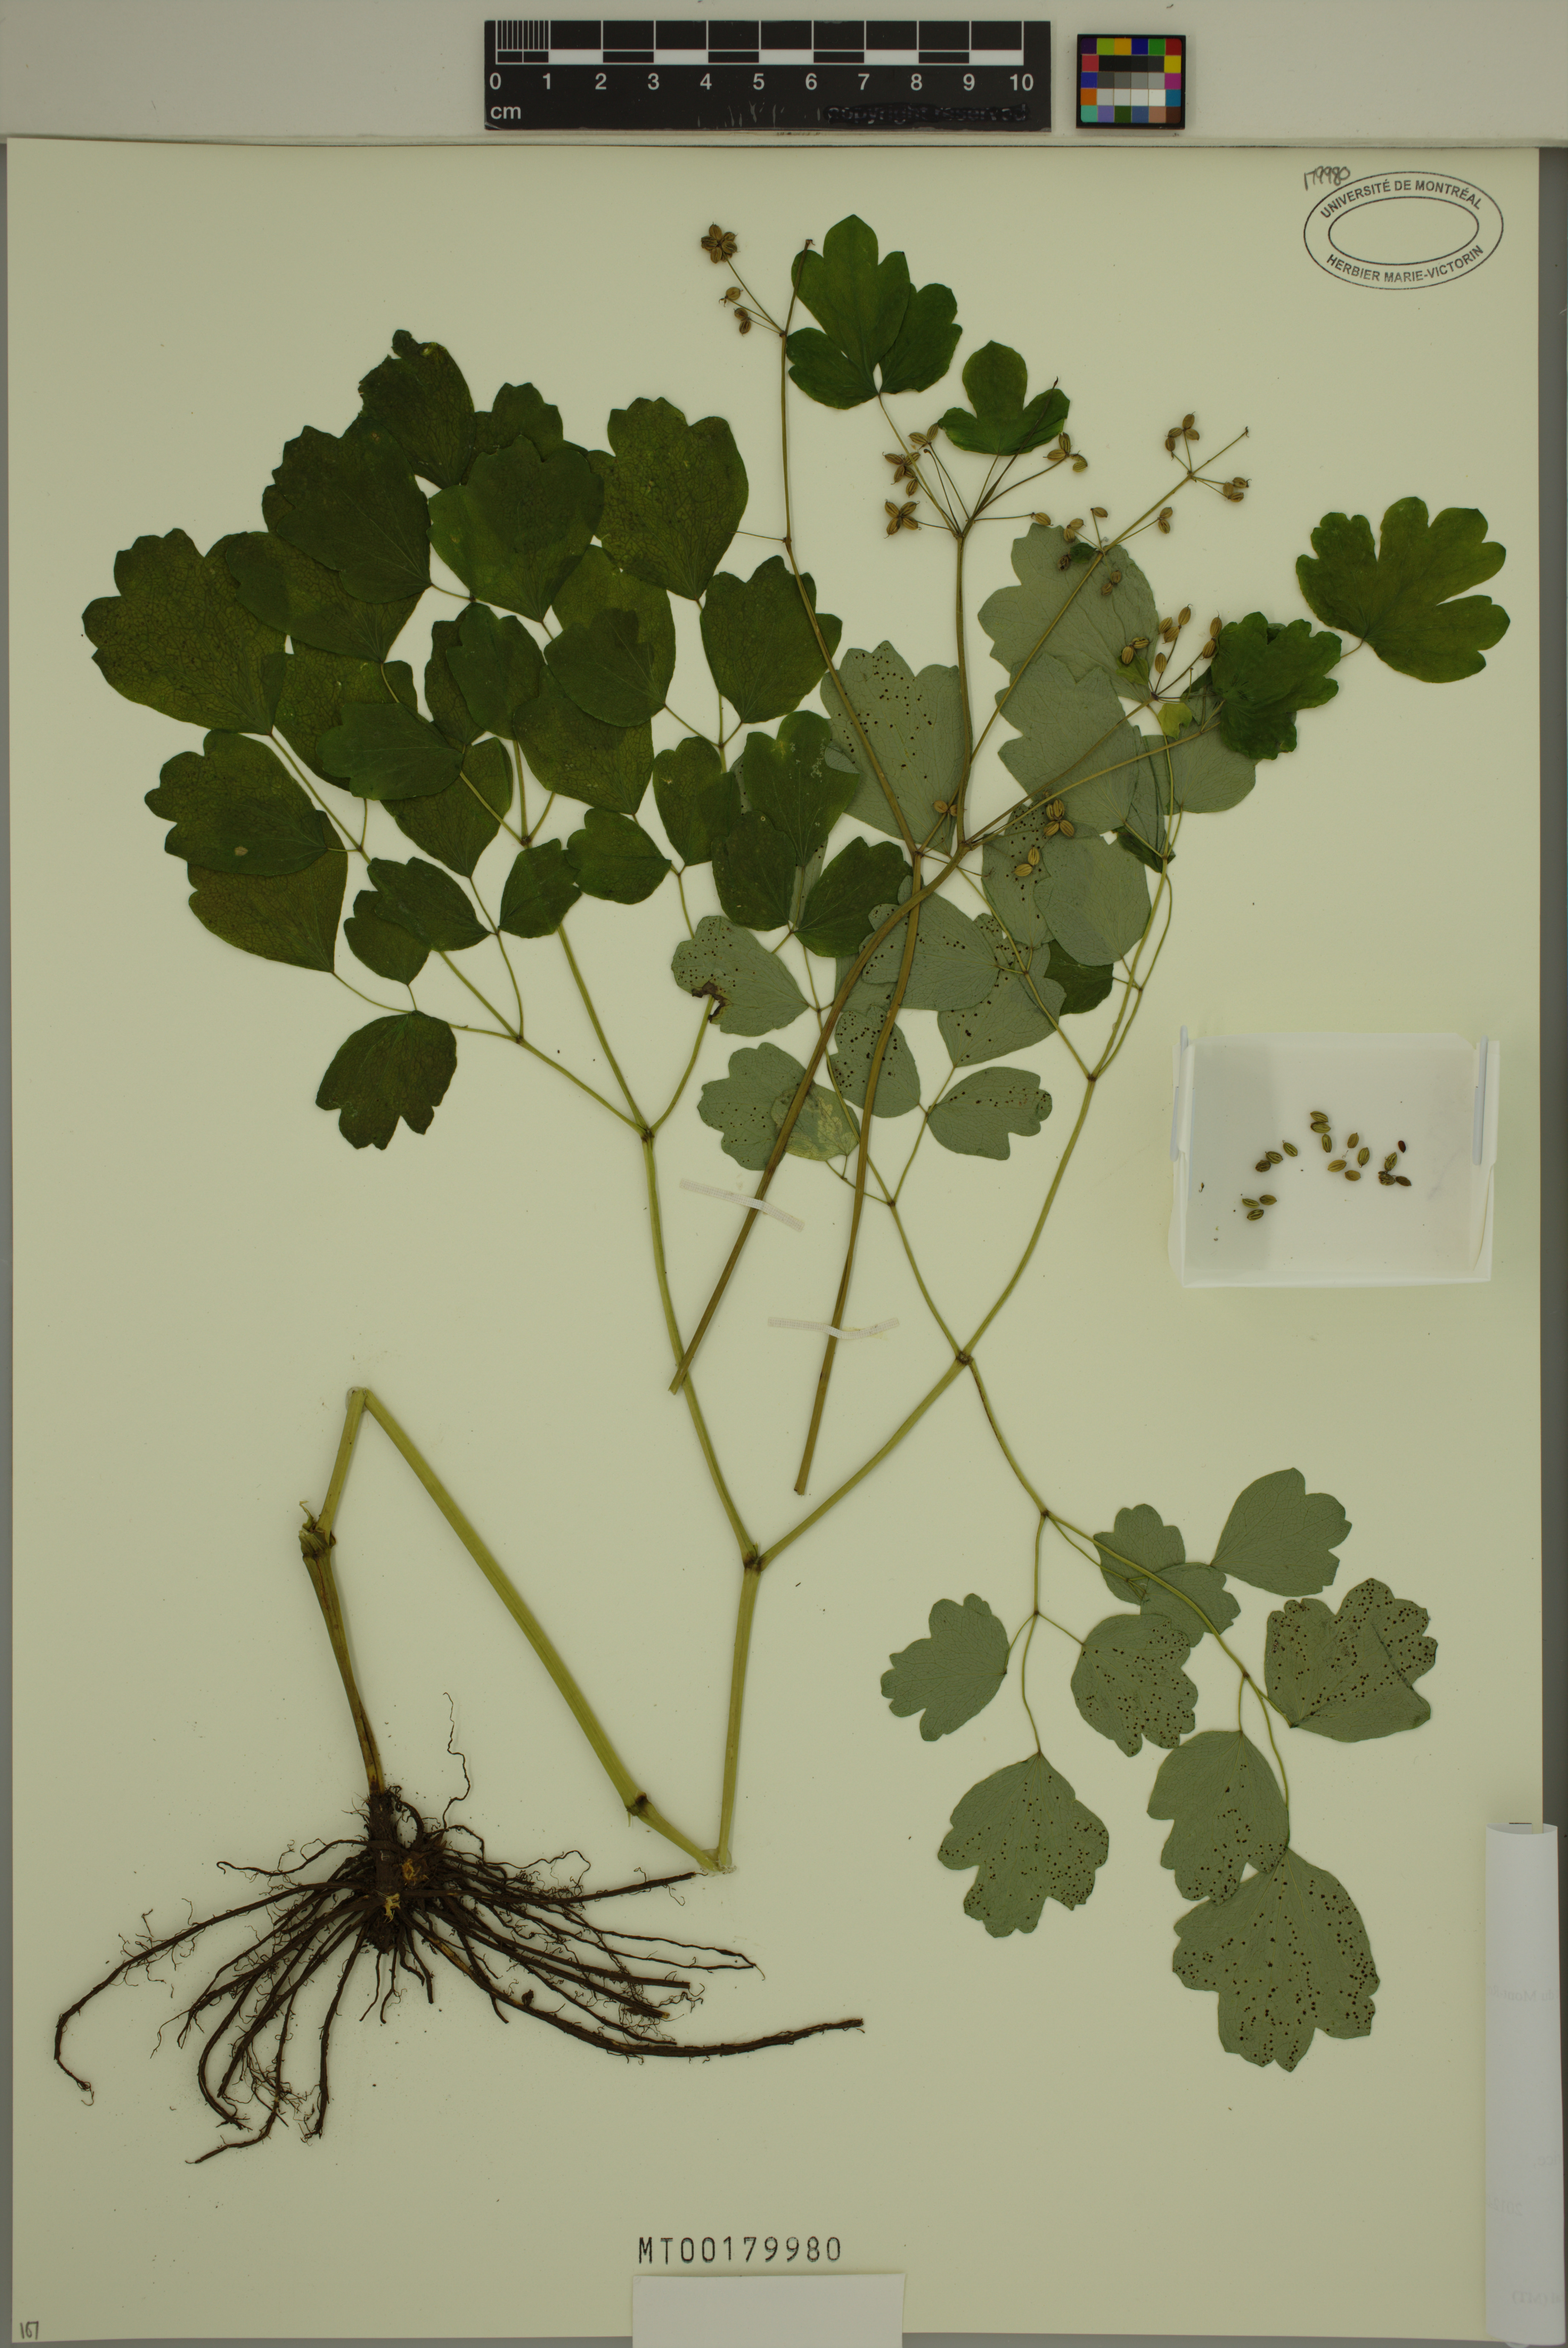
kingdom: Plantae
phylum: Tracheophyta
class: Magnoliopsida
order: Ranunculales
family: Ranunculaceae
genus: Thalictrum
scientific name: Thalictrum dioicum
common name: Early meadow-rue
